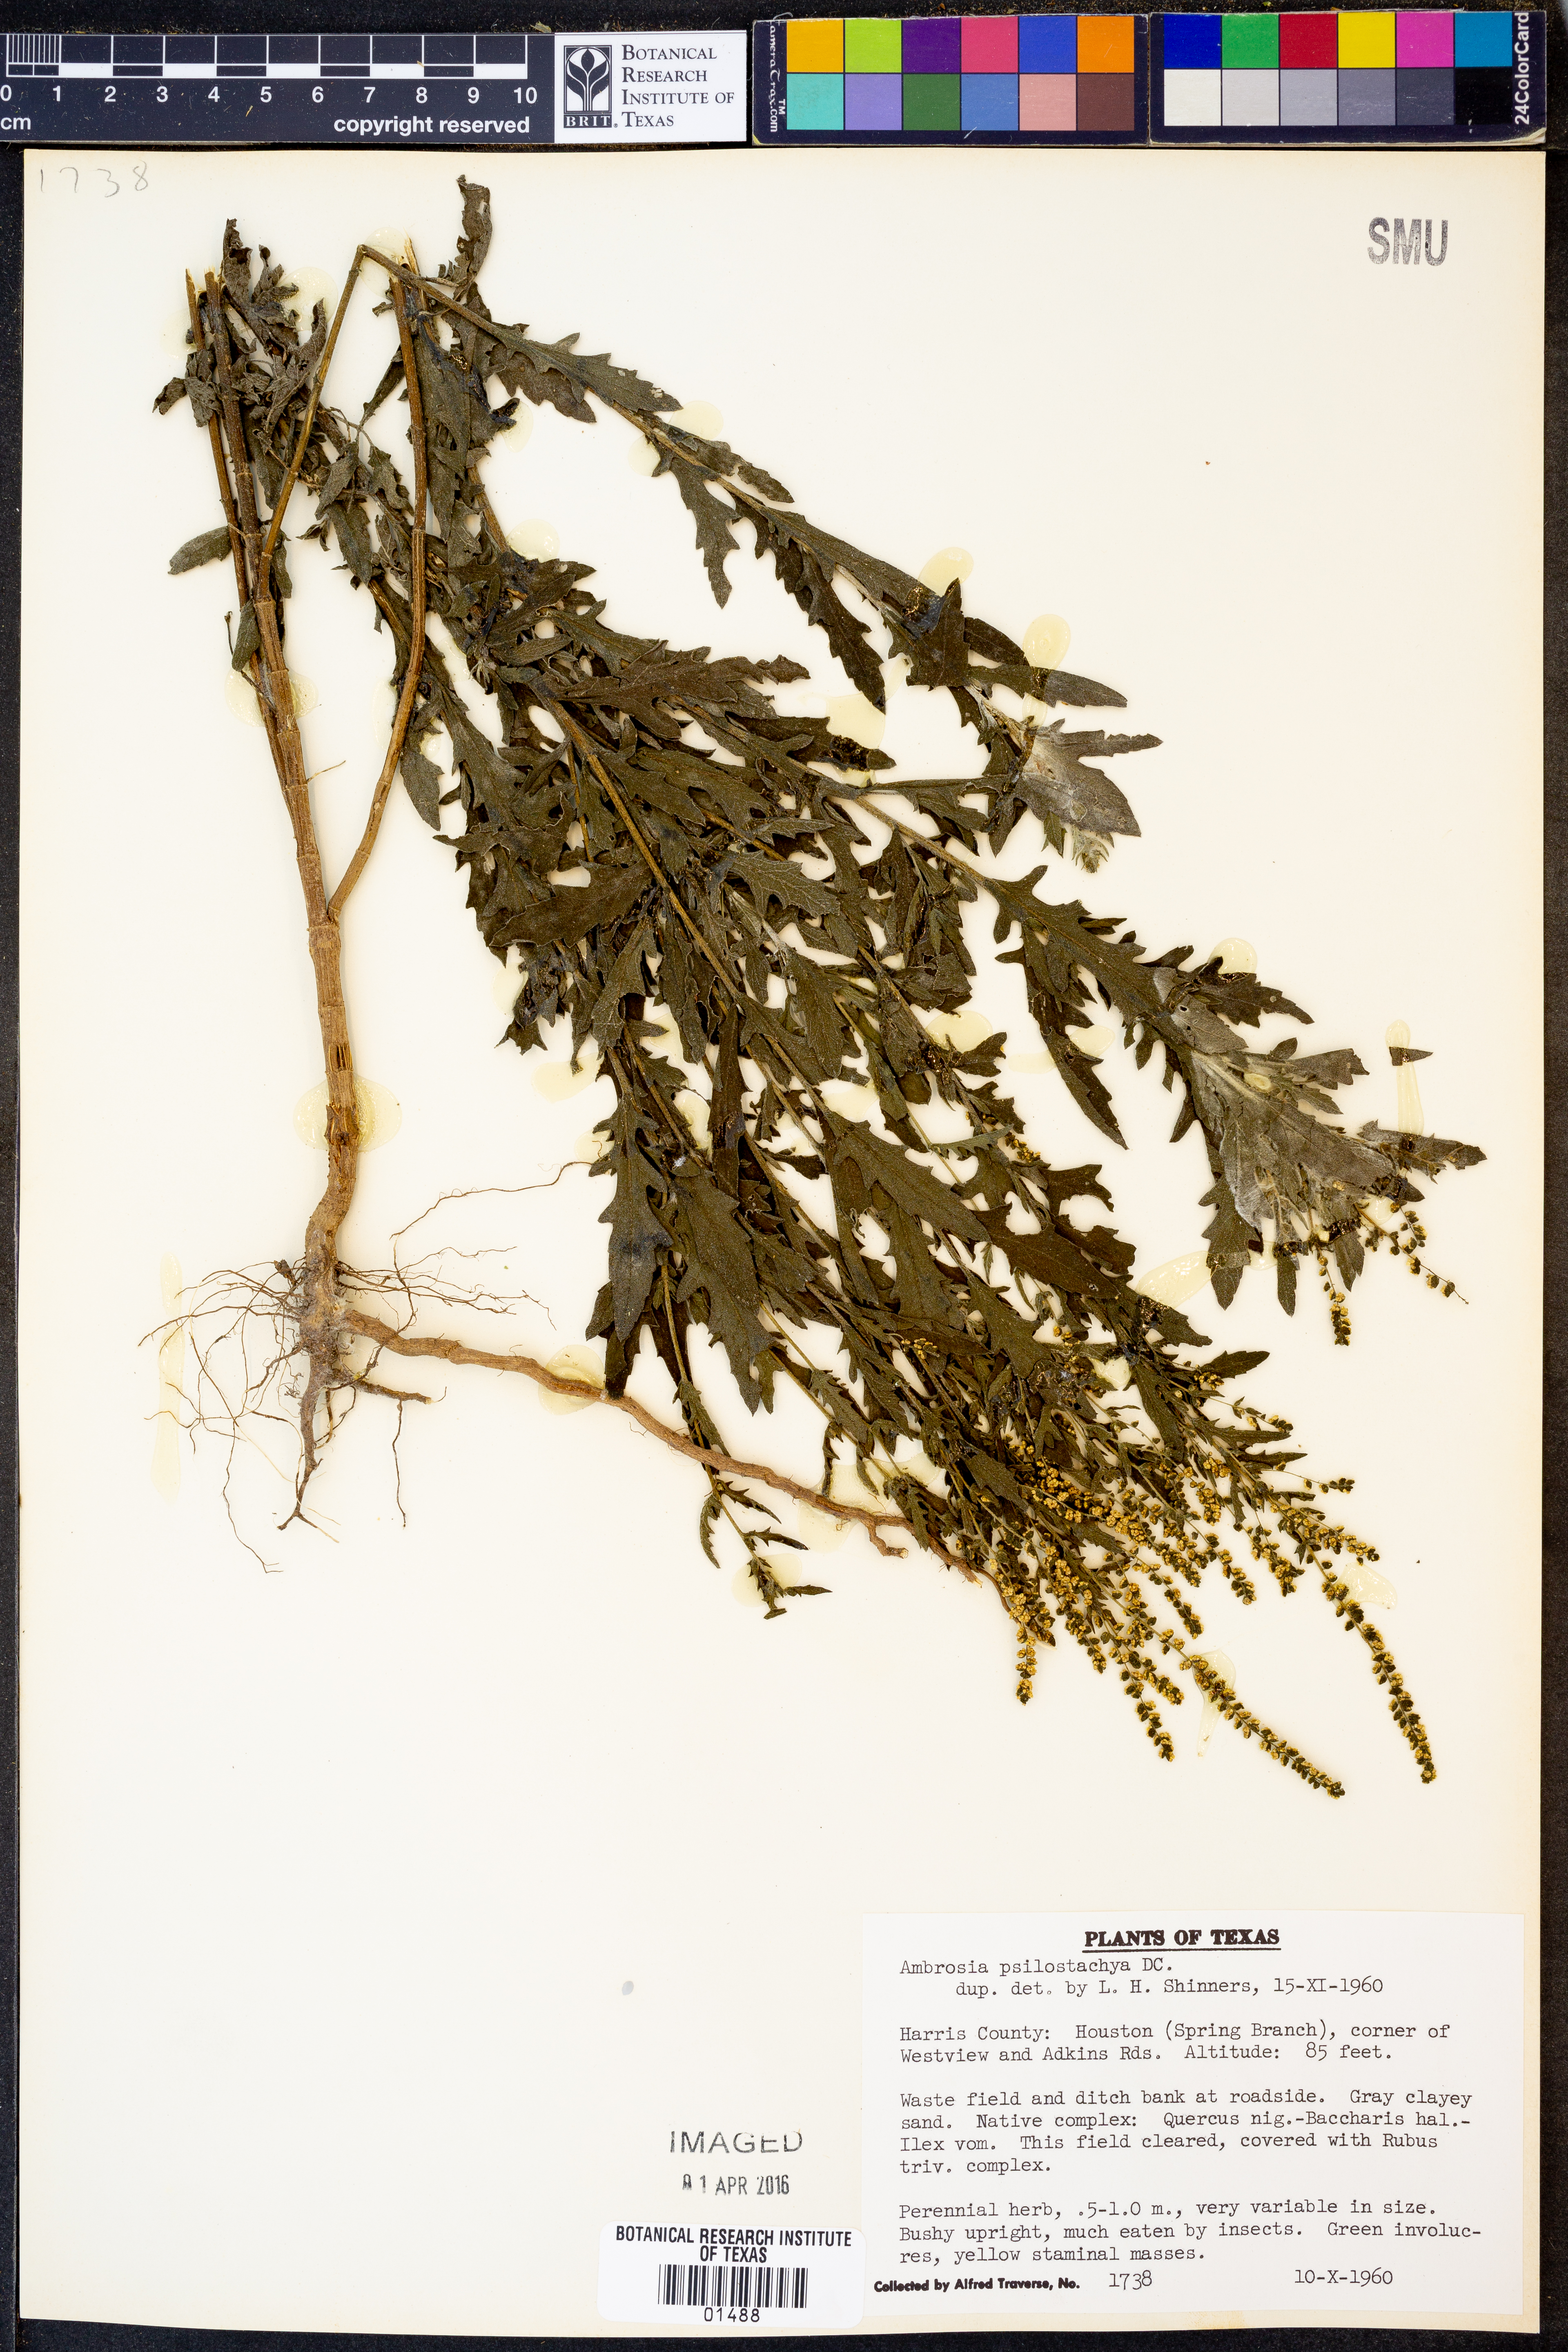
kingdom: Plantae
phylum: Tracheophyta
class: Magnoliopsida
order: Asterales
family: Asteraceae
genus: Ambrosia
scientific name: Ambrosia psilostachya
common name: Perennial ragweed
